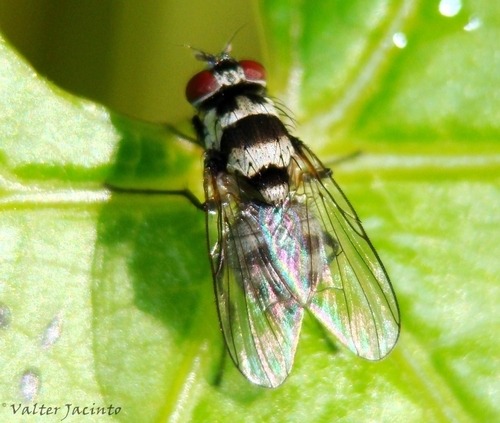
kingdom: Animalia
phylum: Arthropoda
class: Insecta
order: Diptera
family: Muscidae
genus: Limnophora
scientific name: Limnophora obsignata
